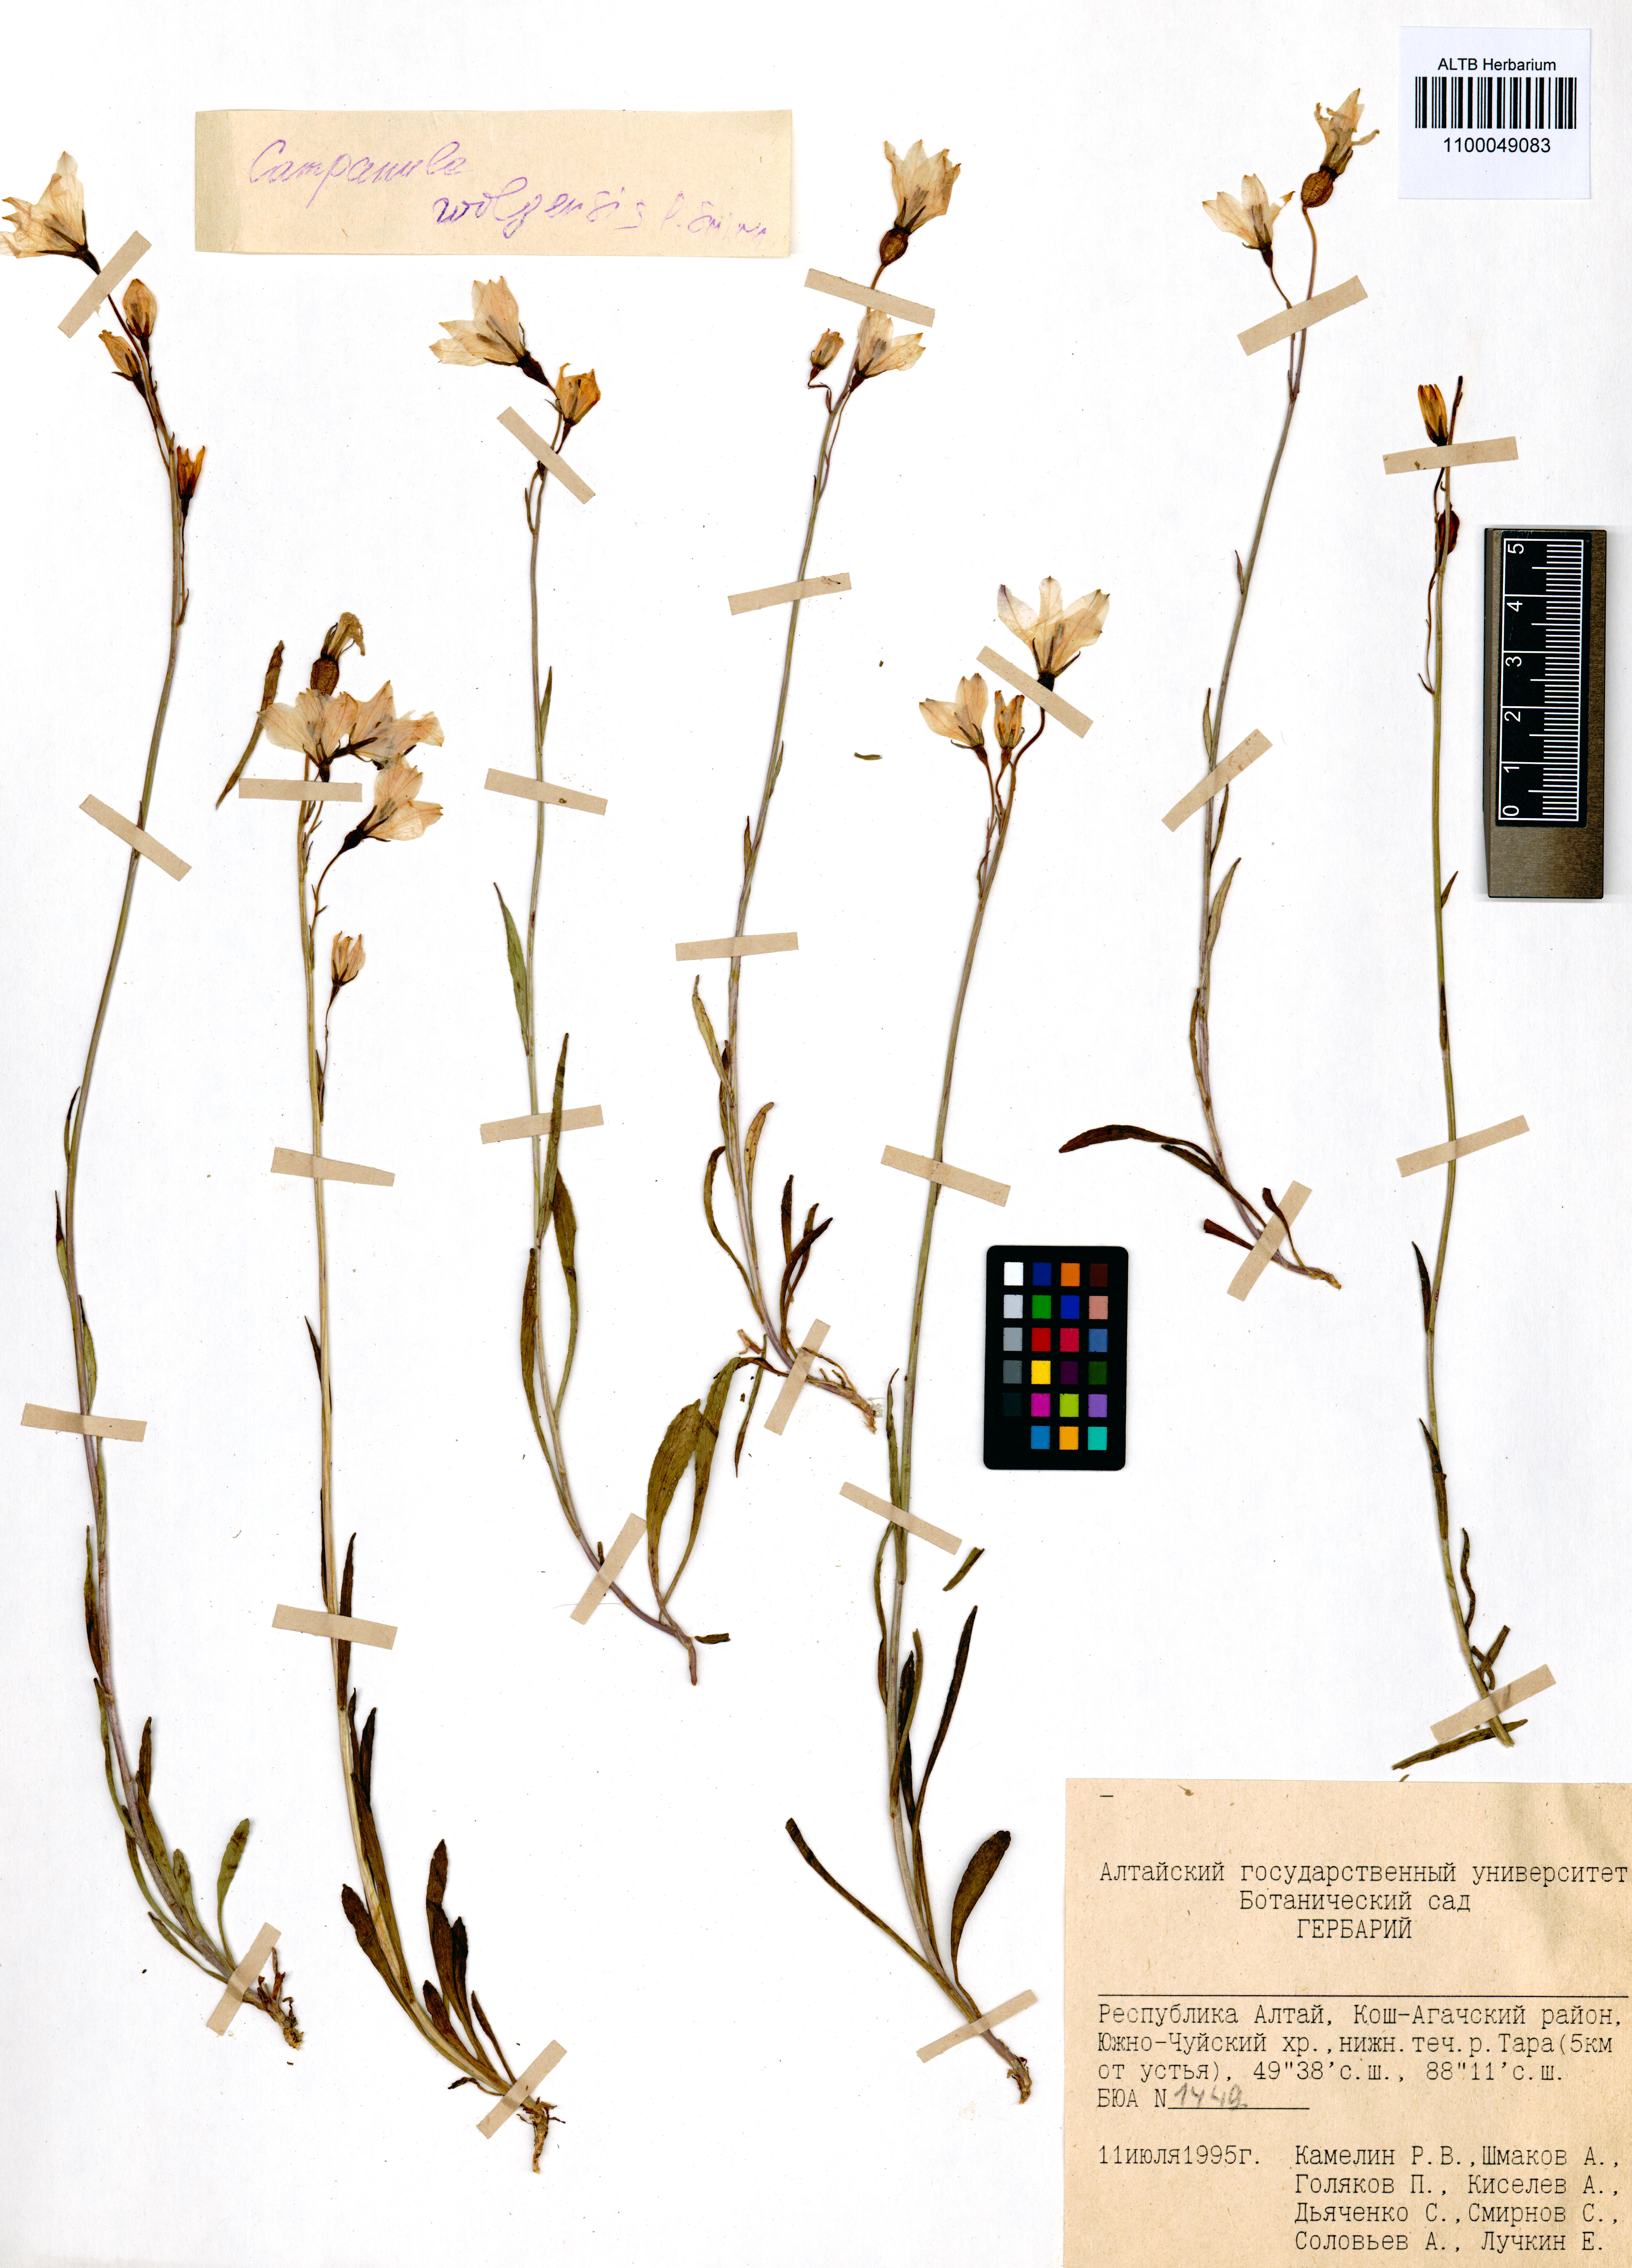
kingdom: Plantae
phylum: Tracheophyta
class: Magnoliopsida
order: Asterales
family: Campanulaceae
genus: Campanula
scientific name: Campanula stevenii
